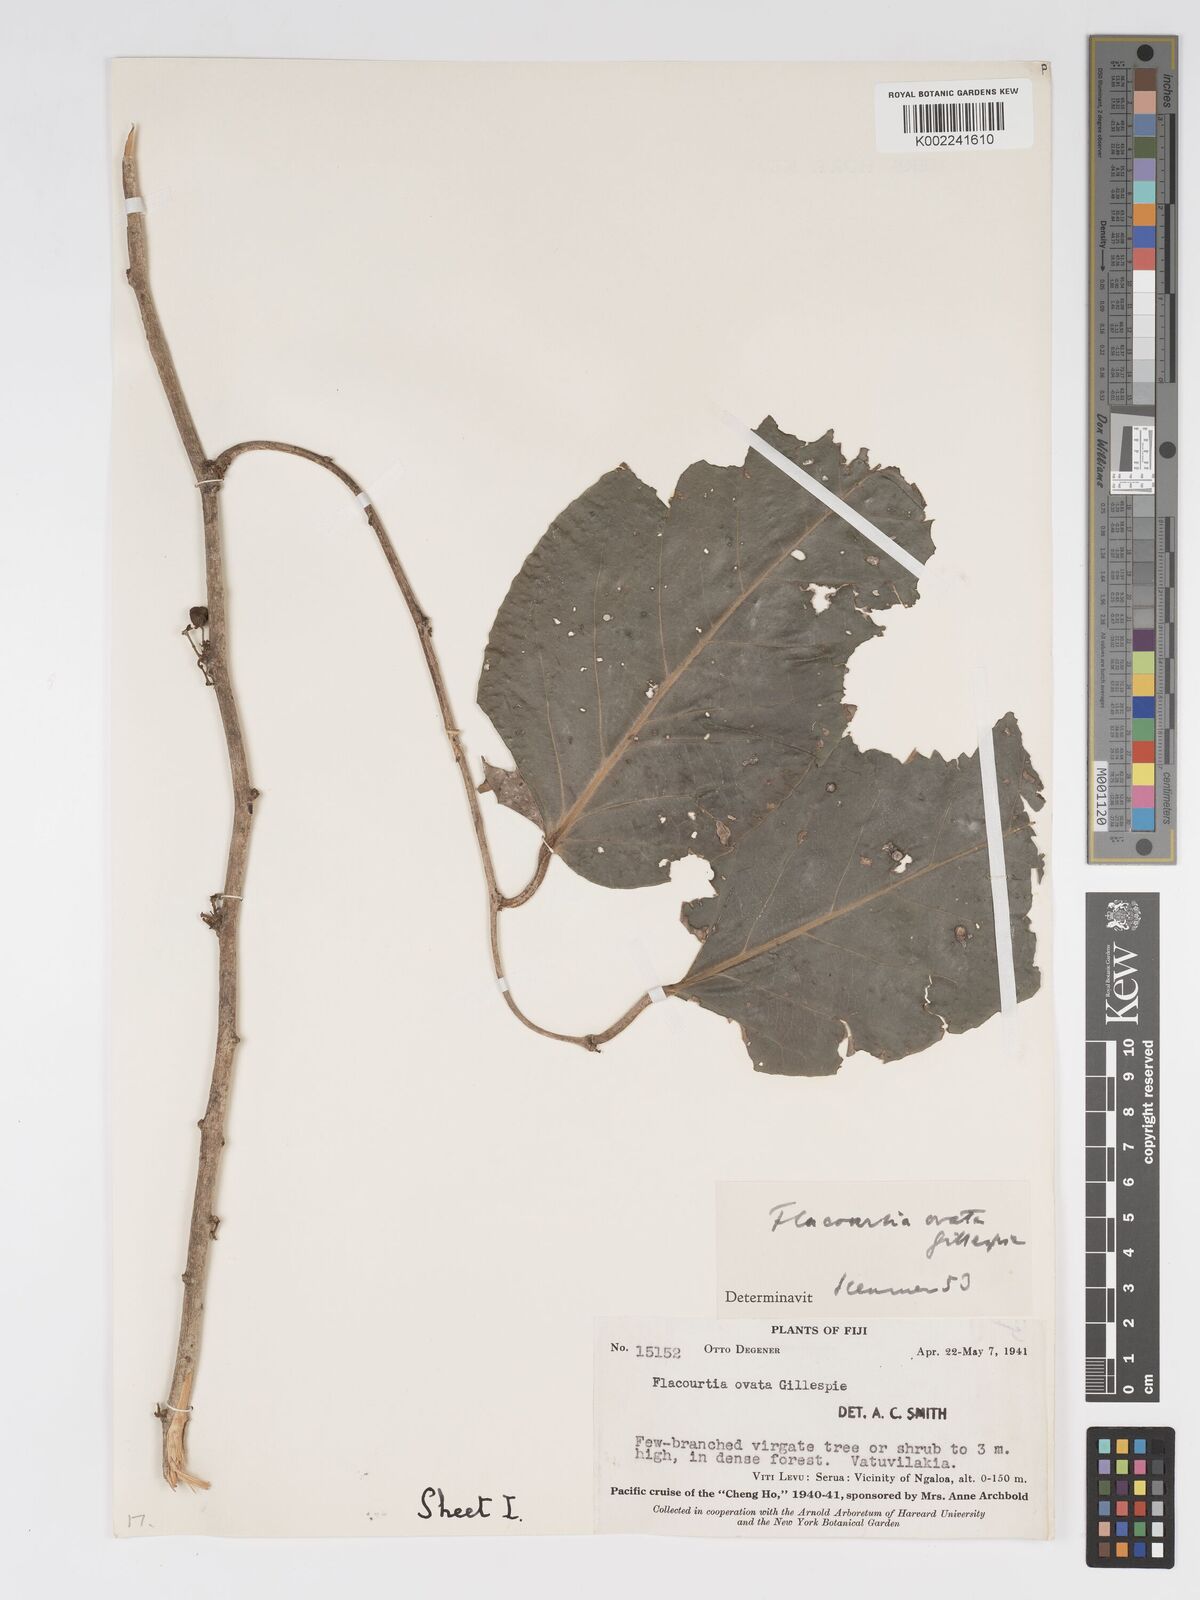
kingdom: Plantae
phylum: Tracheophyta
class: Magnoliopsida
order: Malpighiales
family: Salicaceae
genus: Flacourtia
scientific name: Flacourtia vitiensis
